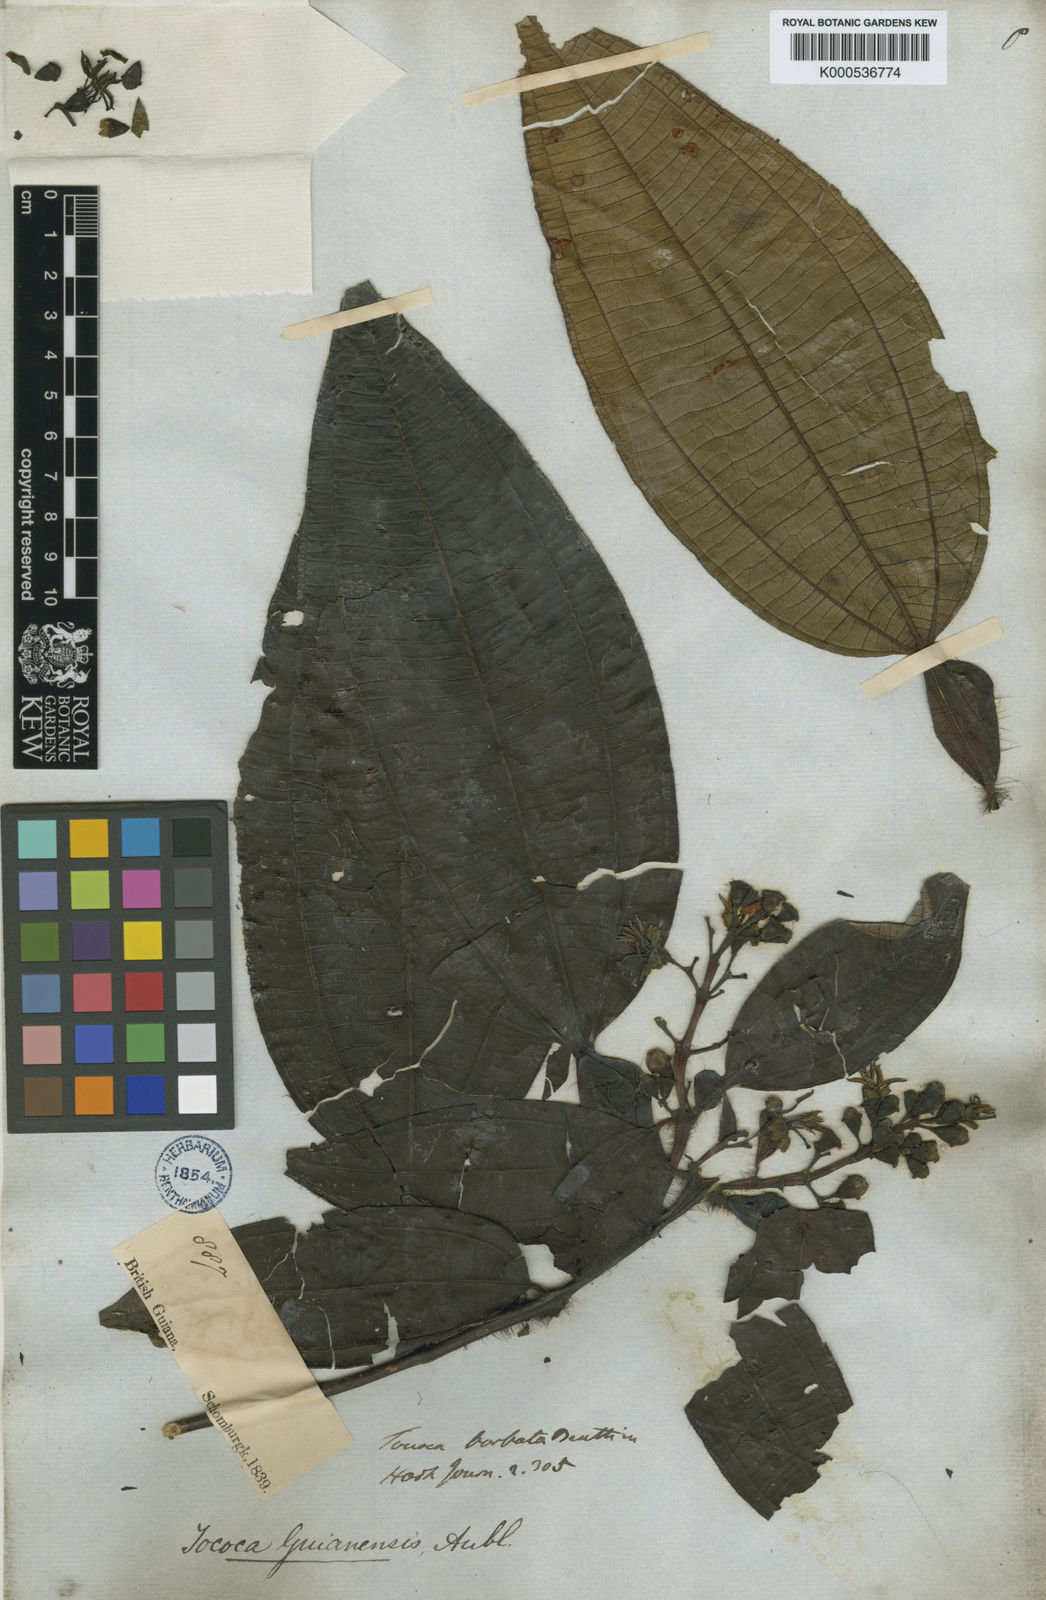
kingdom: Plantae
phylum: Tracheophyta
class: Magnoliopsida
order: Myrtales
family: Melastomataceae
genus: Miconia
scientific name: Miconia tococa
